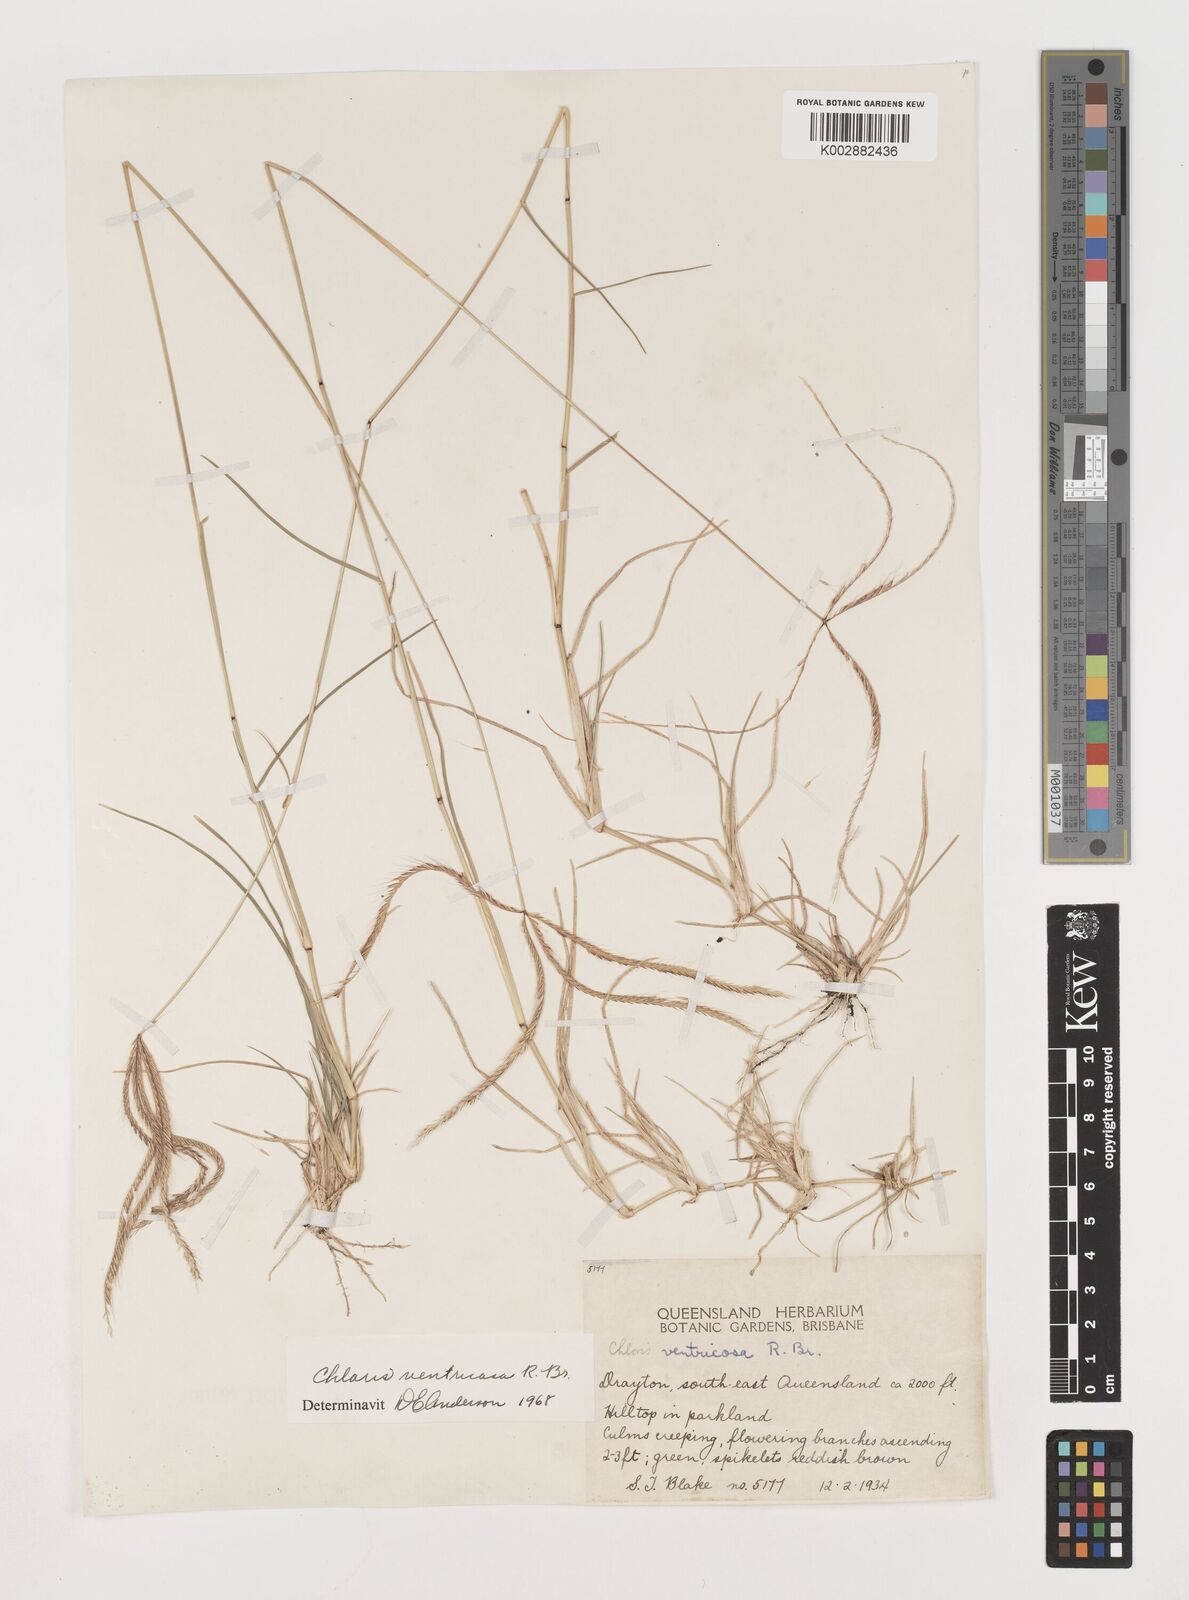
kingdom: Plantae
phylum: Tracheophyta
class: Liliopsida
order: Poales
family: Poaceae
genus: Chloris
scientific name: Chloris ventricosa
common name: Australian windmill grass
